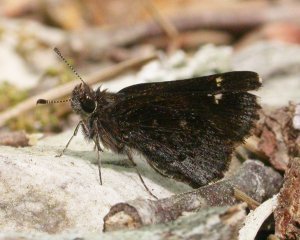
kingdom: Animalia
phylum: Arthropoda
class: Insecta
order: Lepidoptera
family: Hesperiidae
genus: Mastor
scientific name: Mastor vialis
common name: Common Roadside-Skipper
